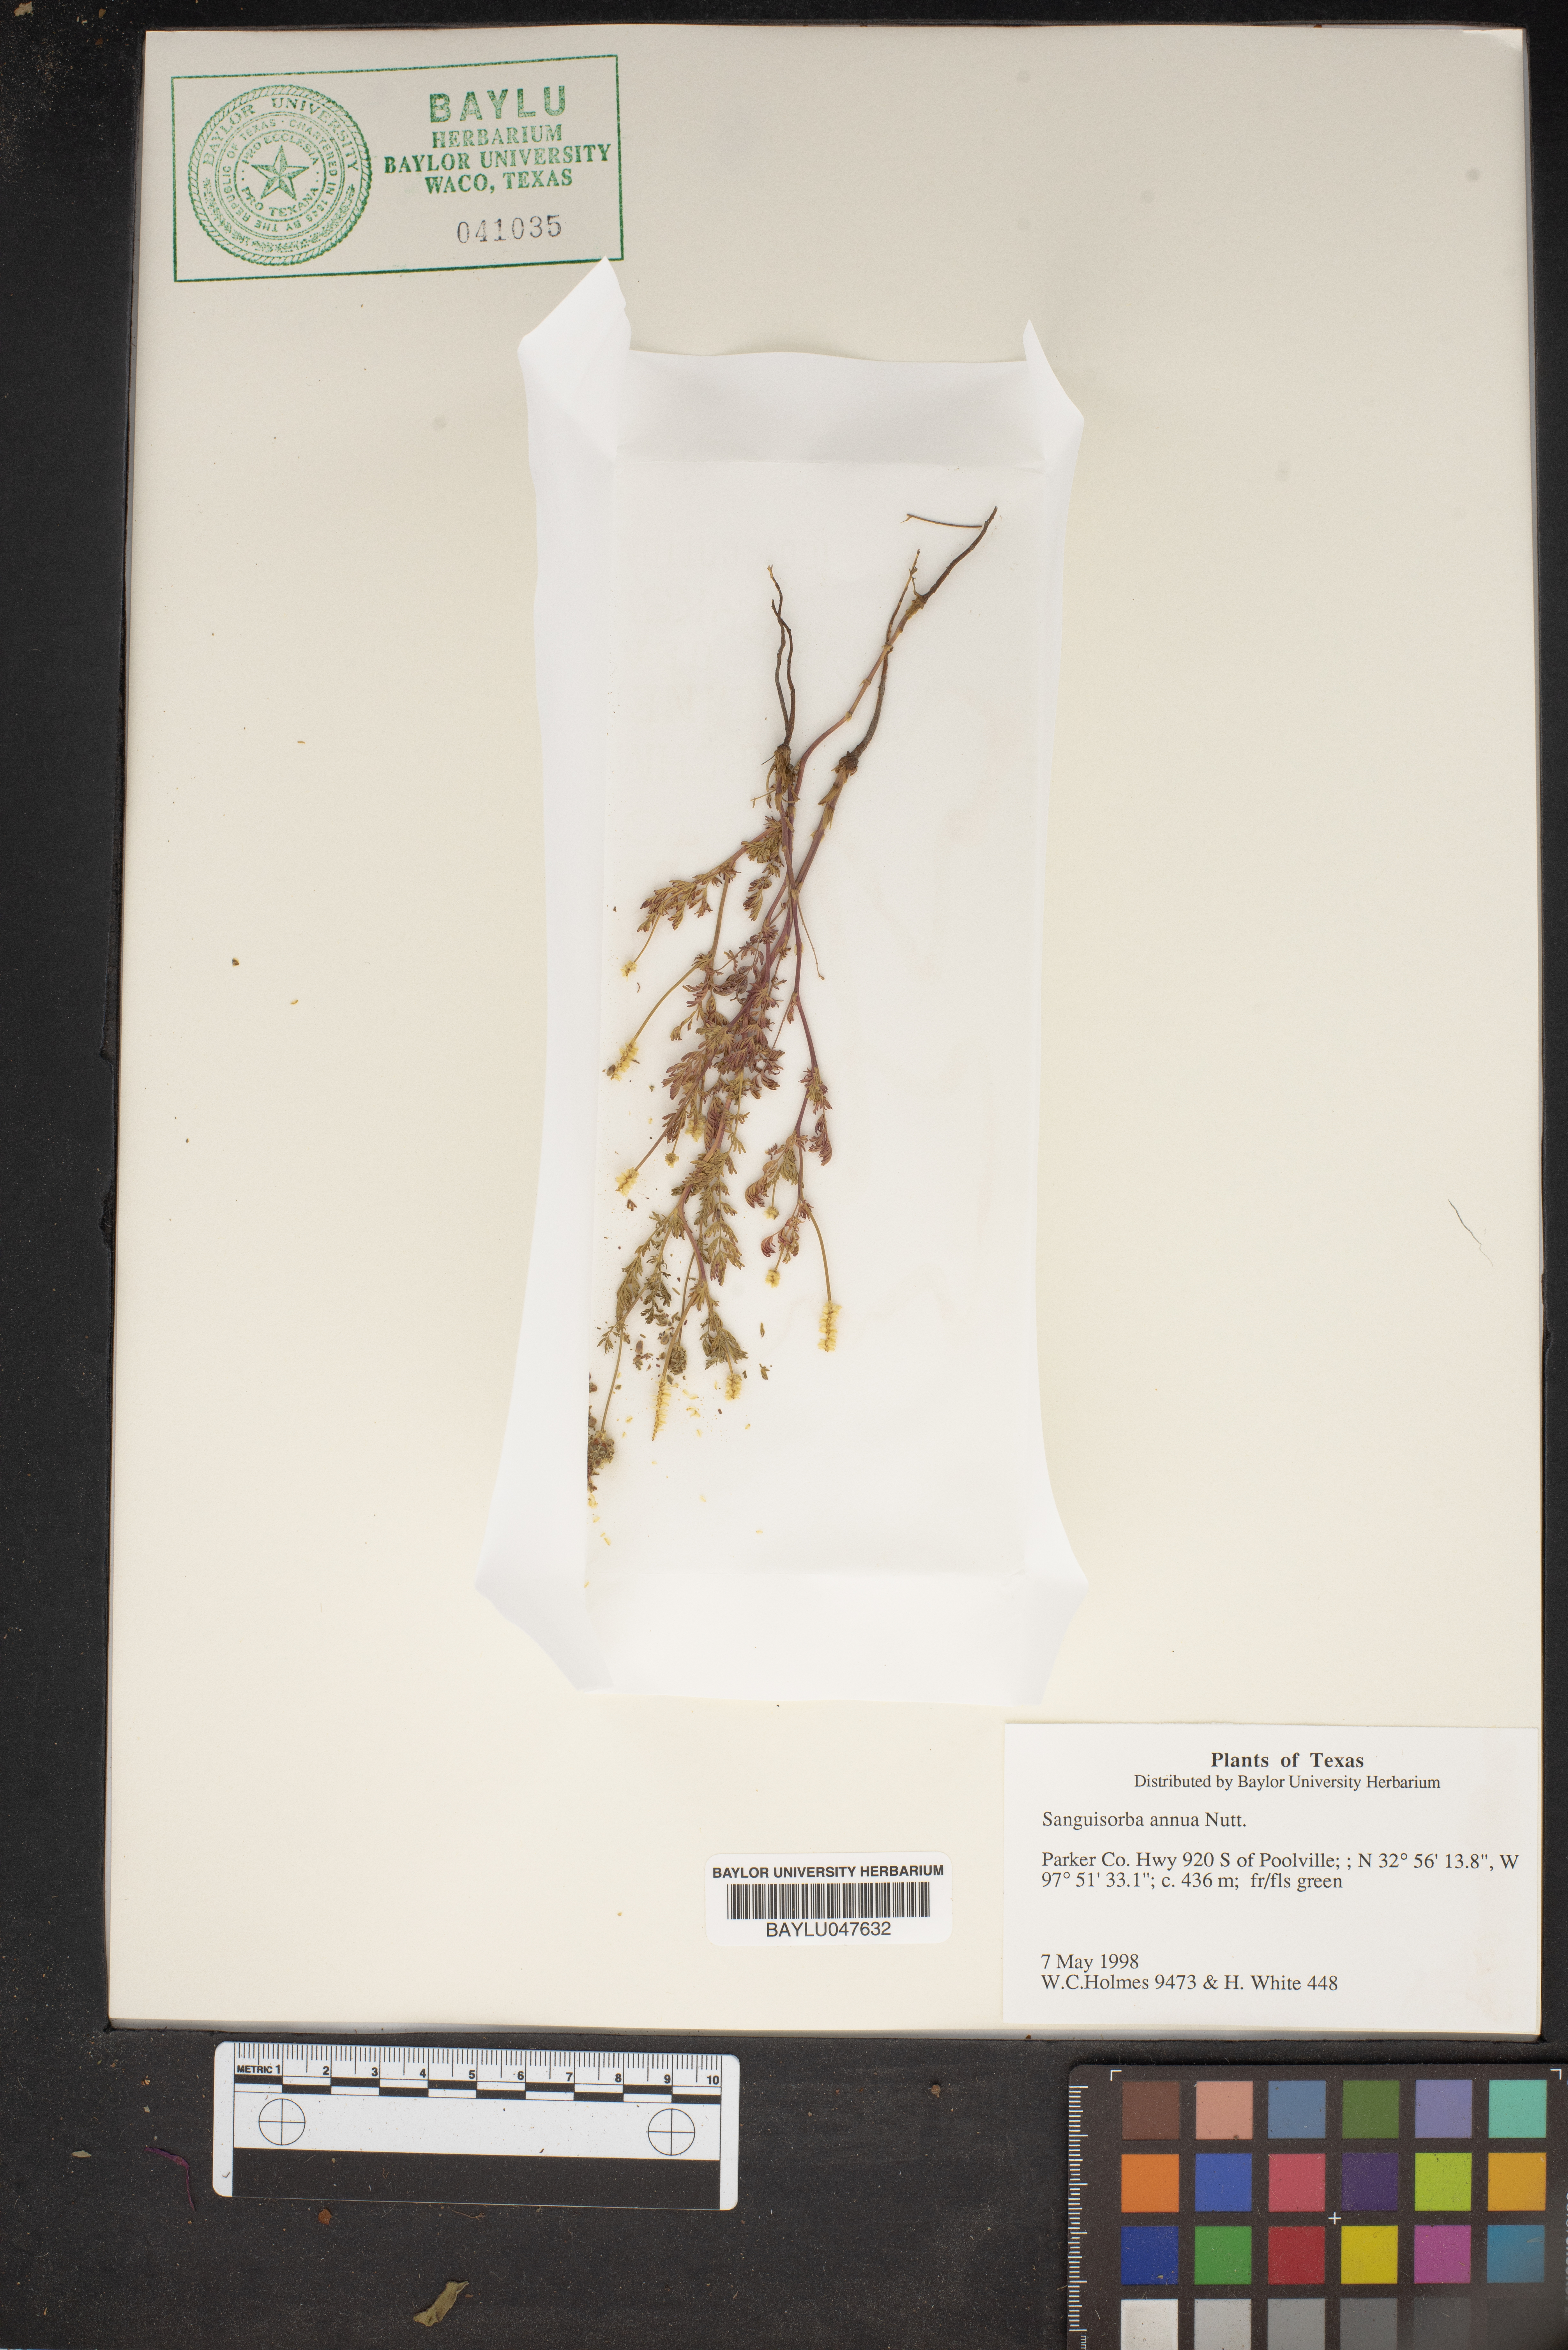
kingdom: Plantae
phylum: Tracheophyta
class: Magnoliopsida
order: Rosales
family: Rosaceae
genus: Poteridium
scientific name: Poteridium annuum
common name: Annual burnet
